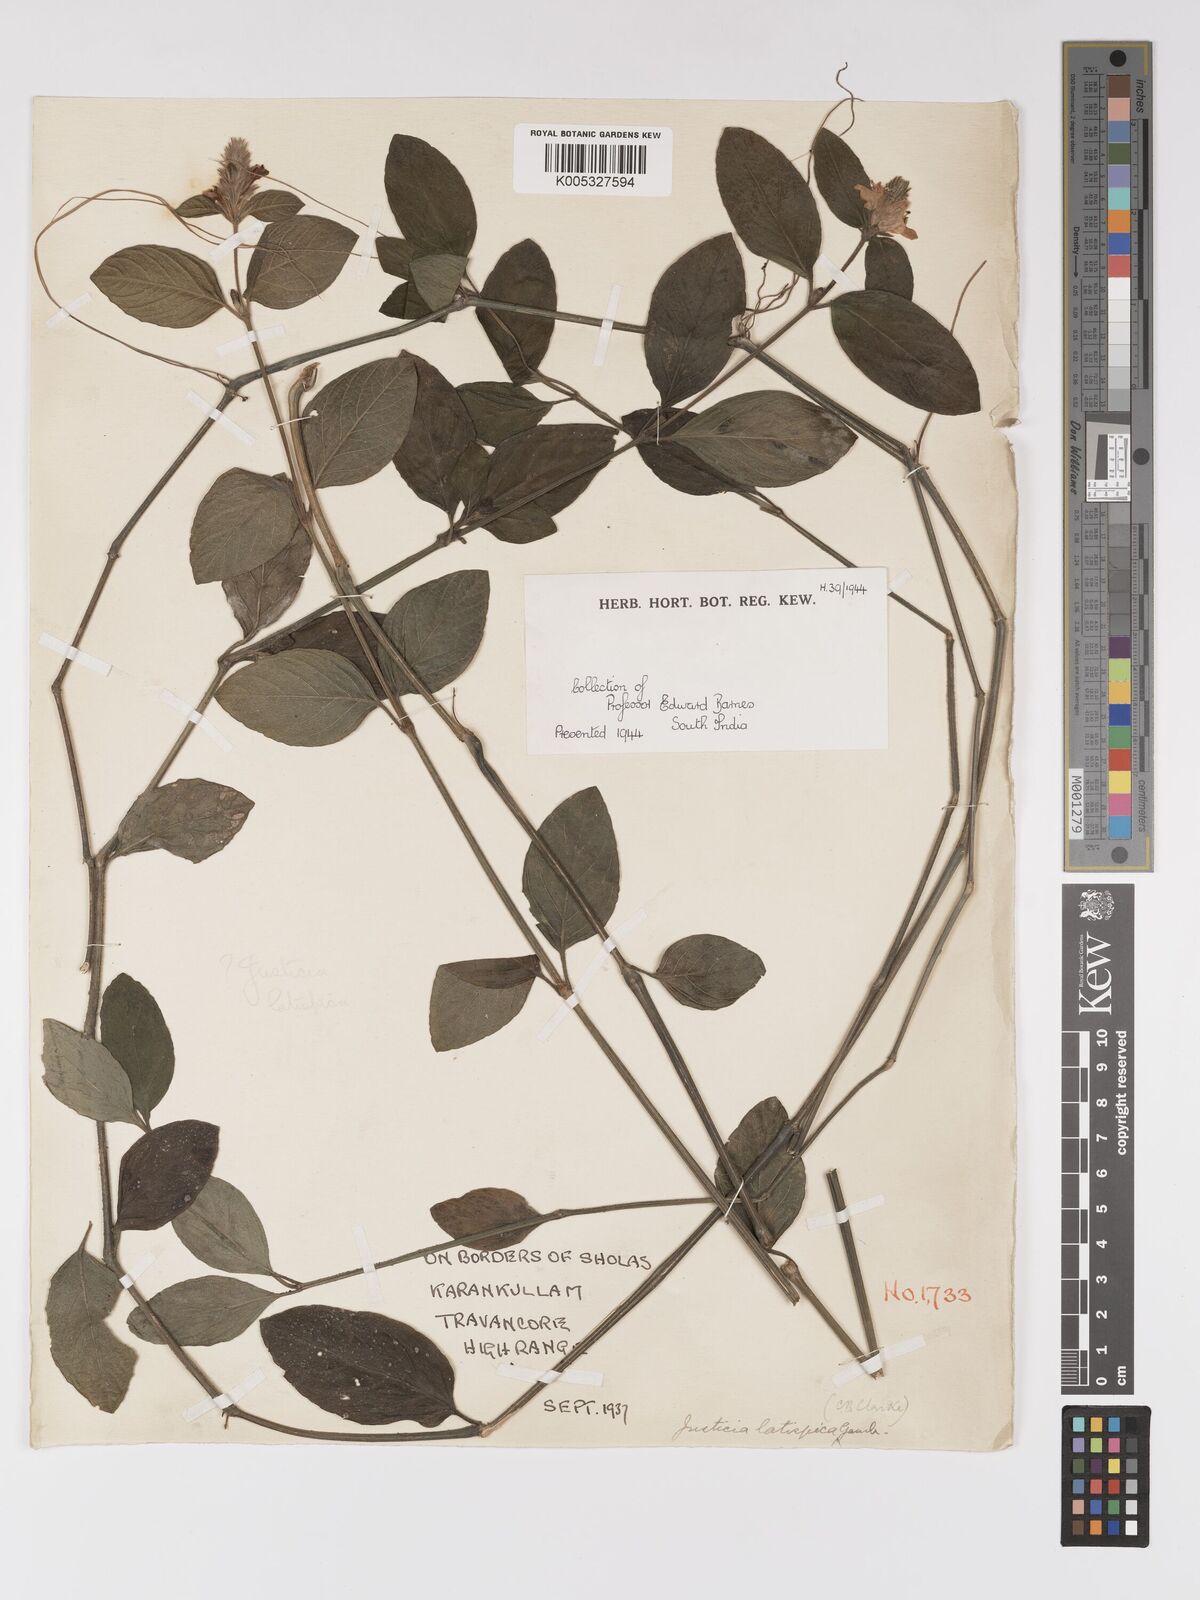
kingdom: Plantae
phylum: Tracheophyta
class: Magnoliopsida
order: Lamiales
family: Acanthaceae
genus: Rostellularia
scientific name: Rostellularia latispica
